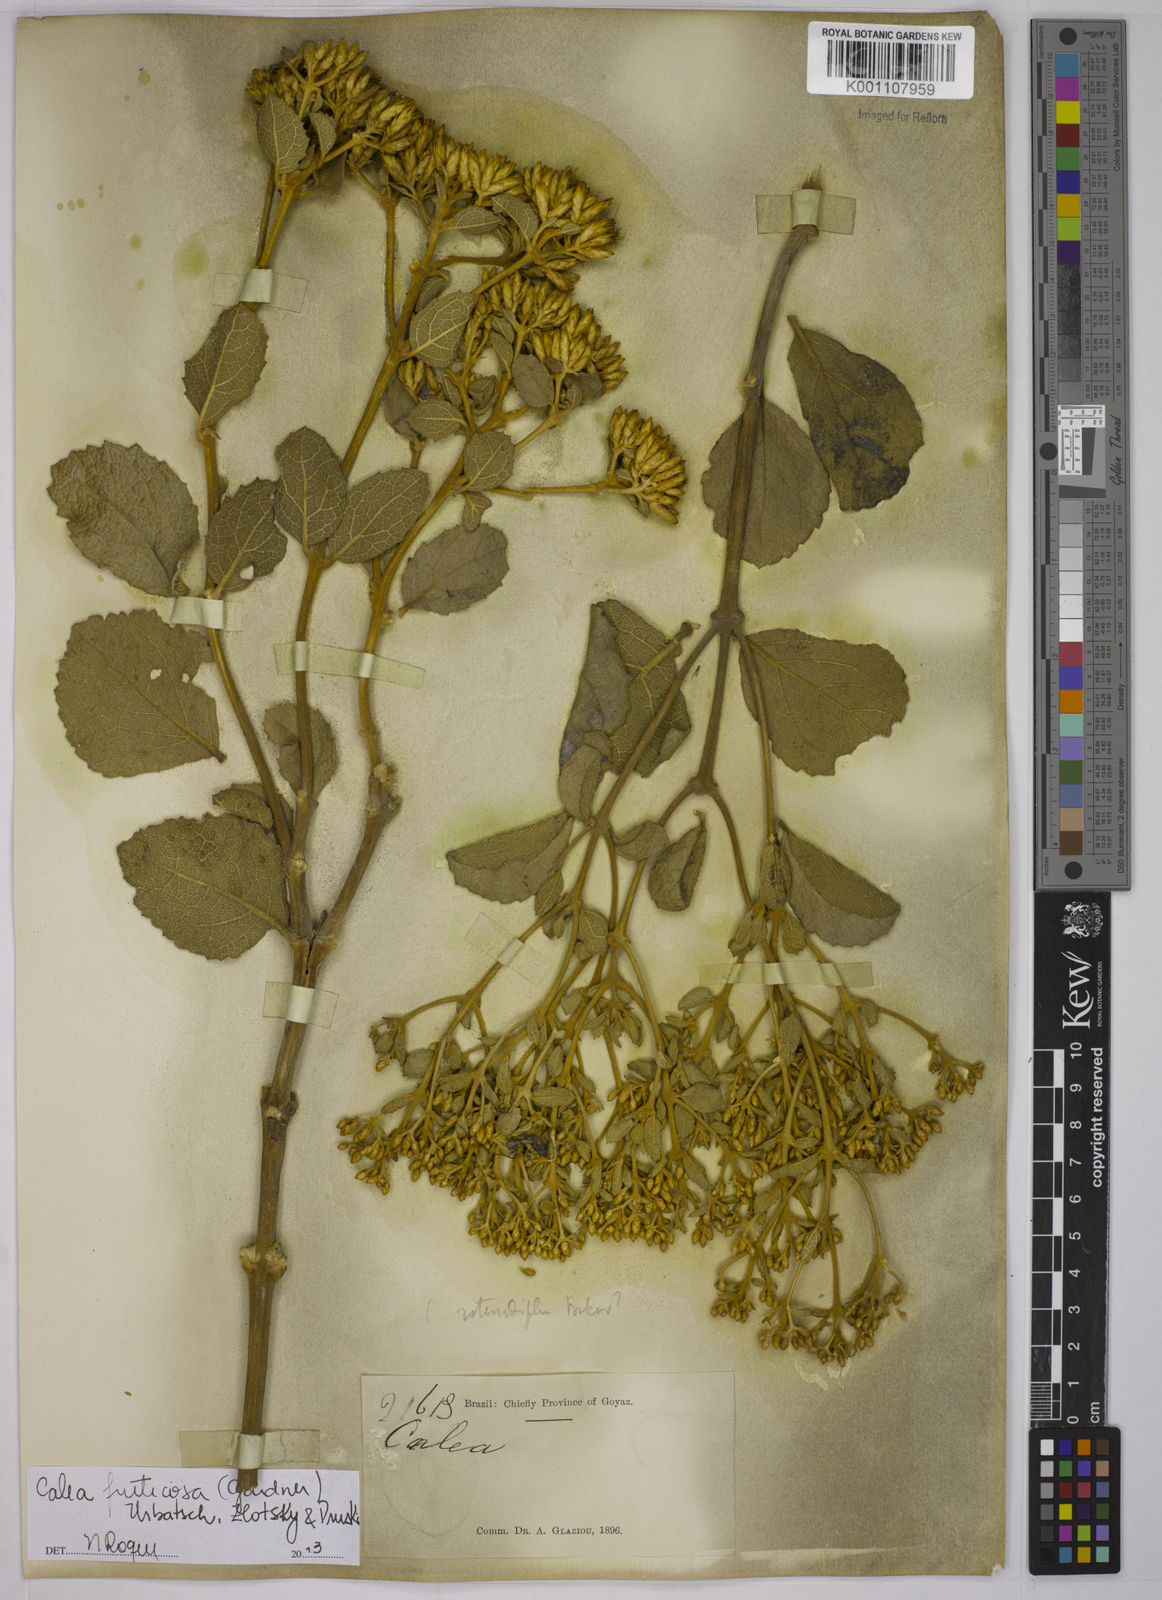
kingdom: Plantae
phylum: Tracheophyta
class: Magnoliopsida
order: Asterales
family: Asteraceae
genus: Calea
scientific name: Calea fruticosa
